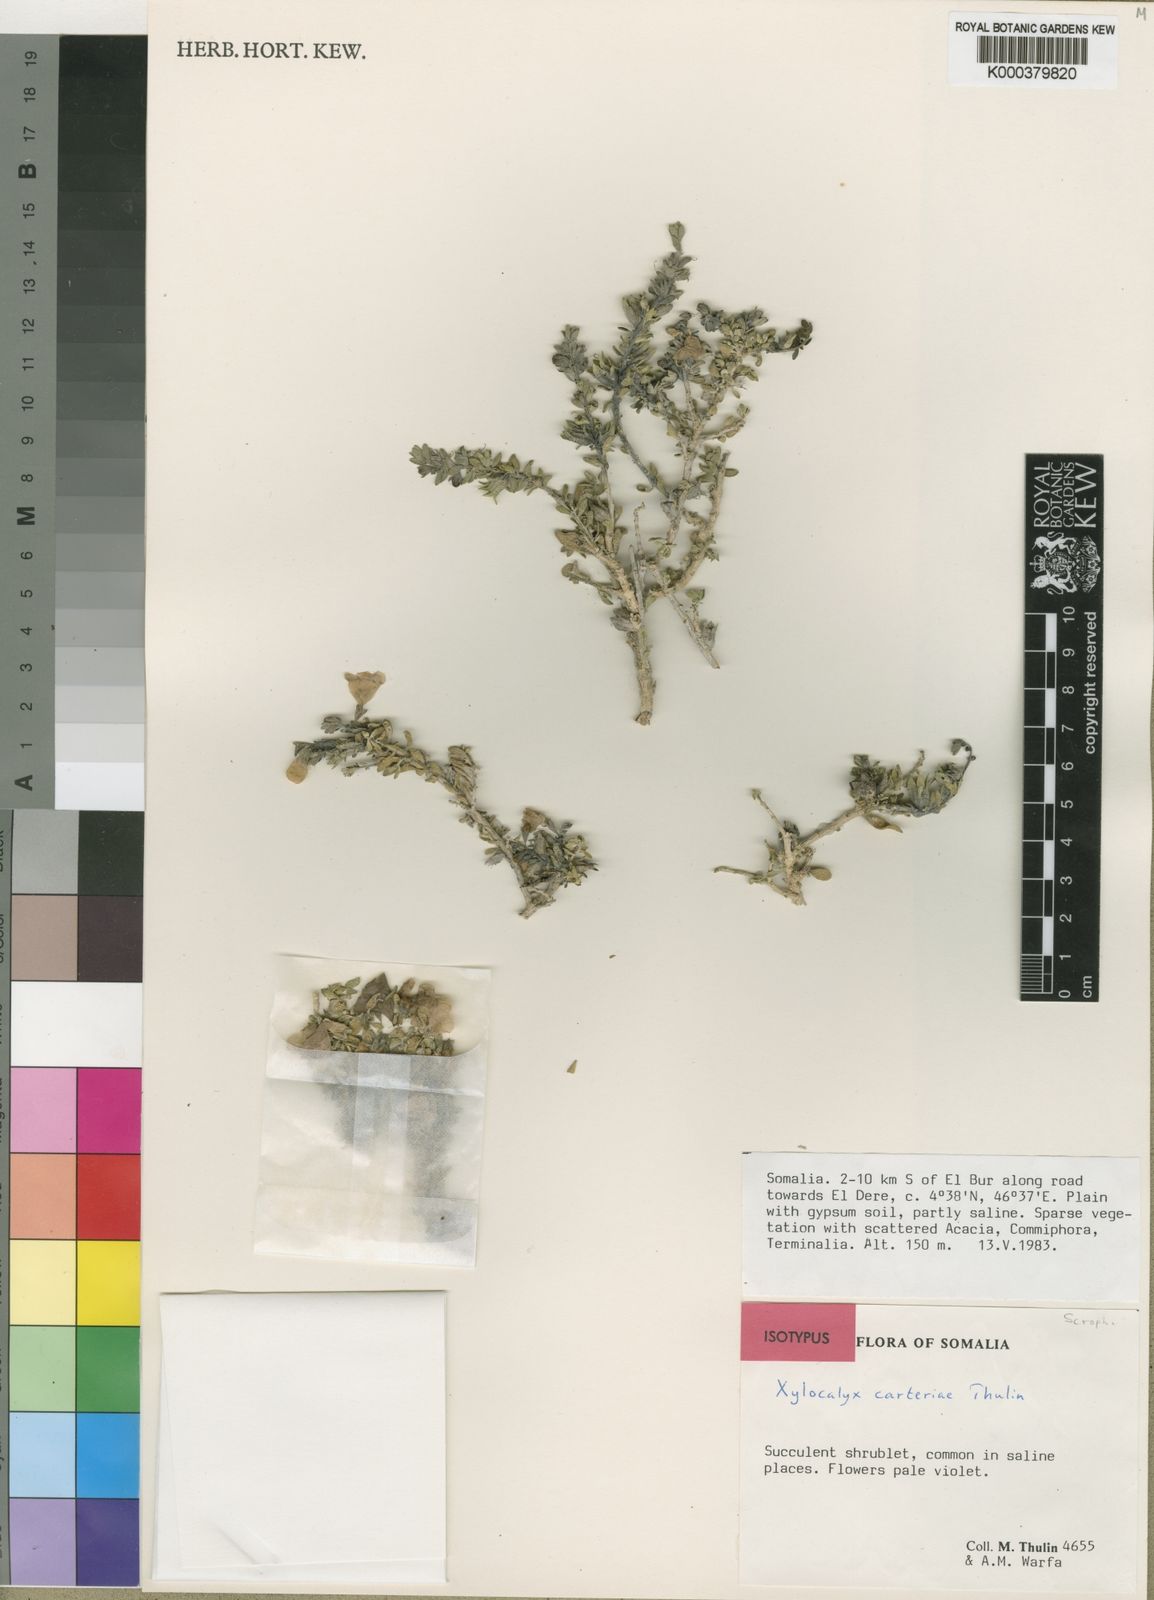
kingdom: Plantae
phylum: Tracheophyta
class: Magnoliopsida
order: Lamiales
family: Orobanchaceae
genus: Xylocalyx
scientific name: Xylocalyx carterae
